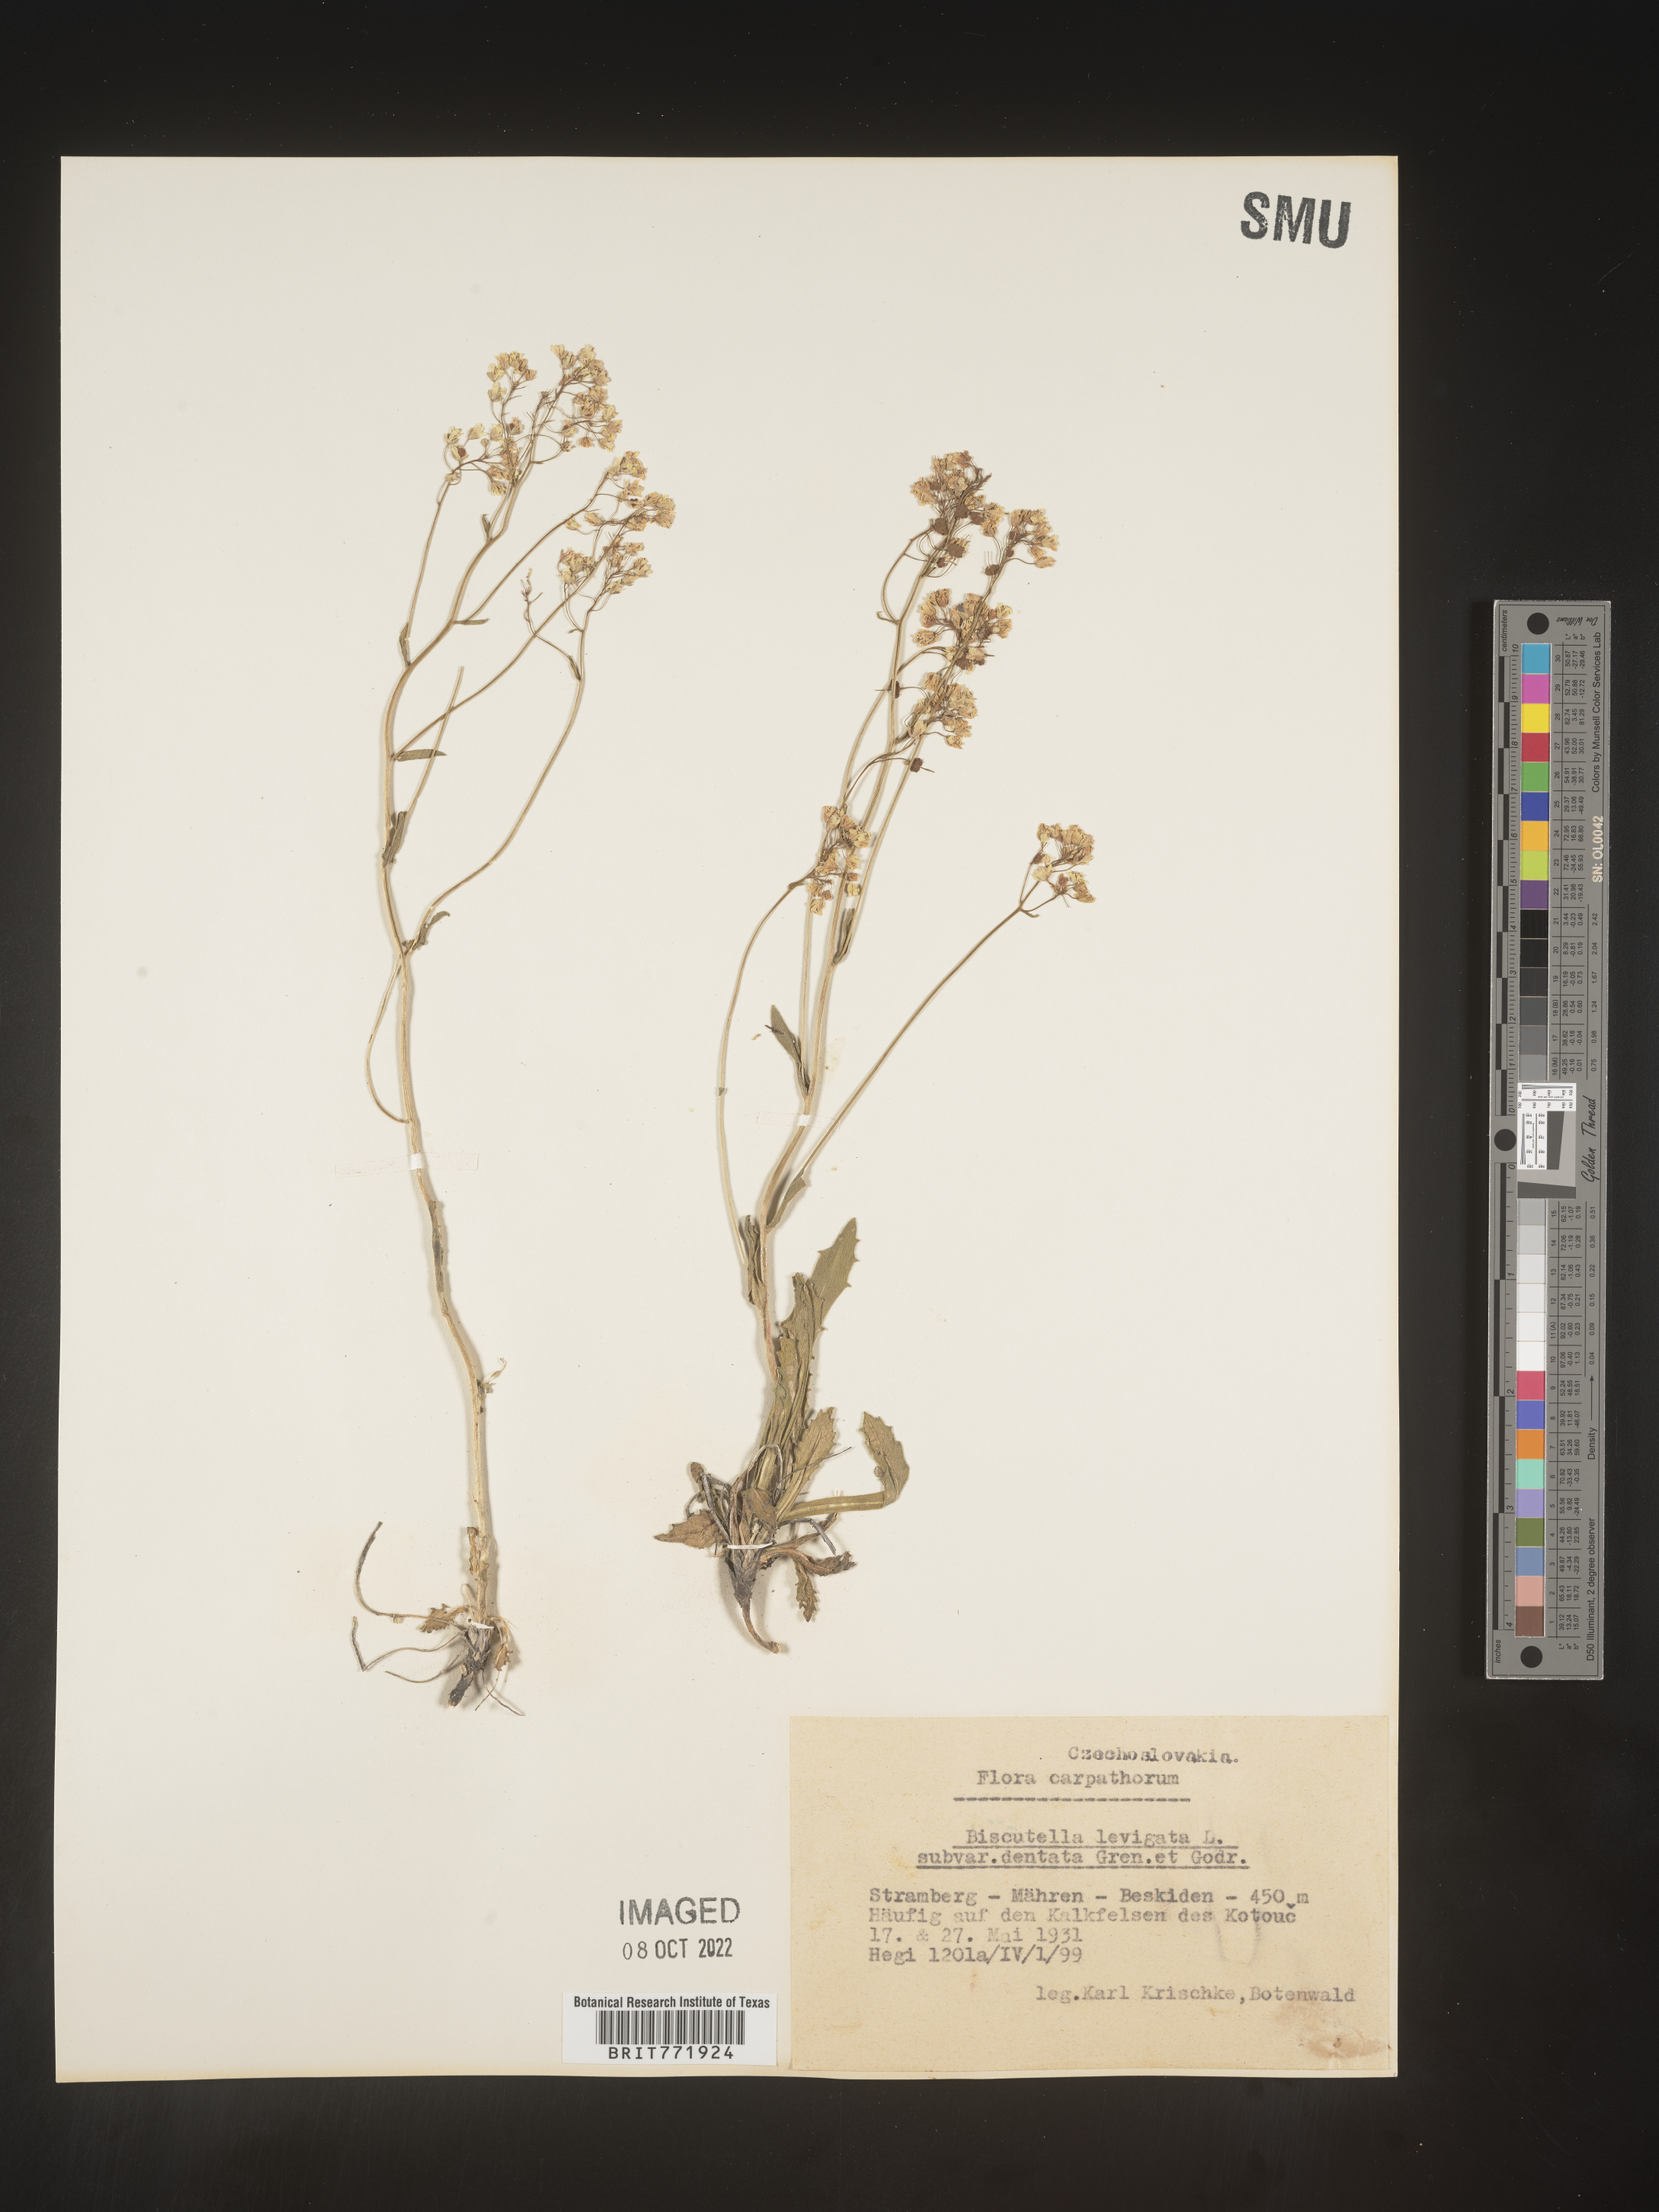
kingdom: Plantae
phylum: Tracheophyta
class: Magnoliopsida
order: Brassicales
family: Brassicaceae
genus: Biscutella
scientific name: Biscutella
